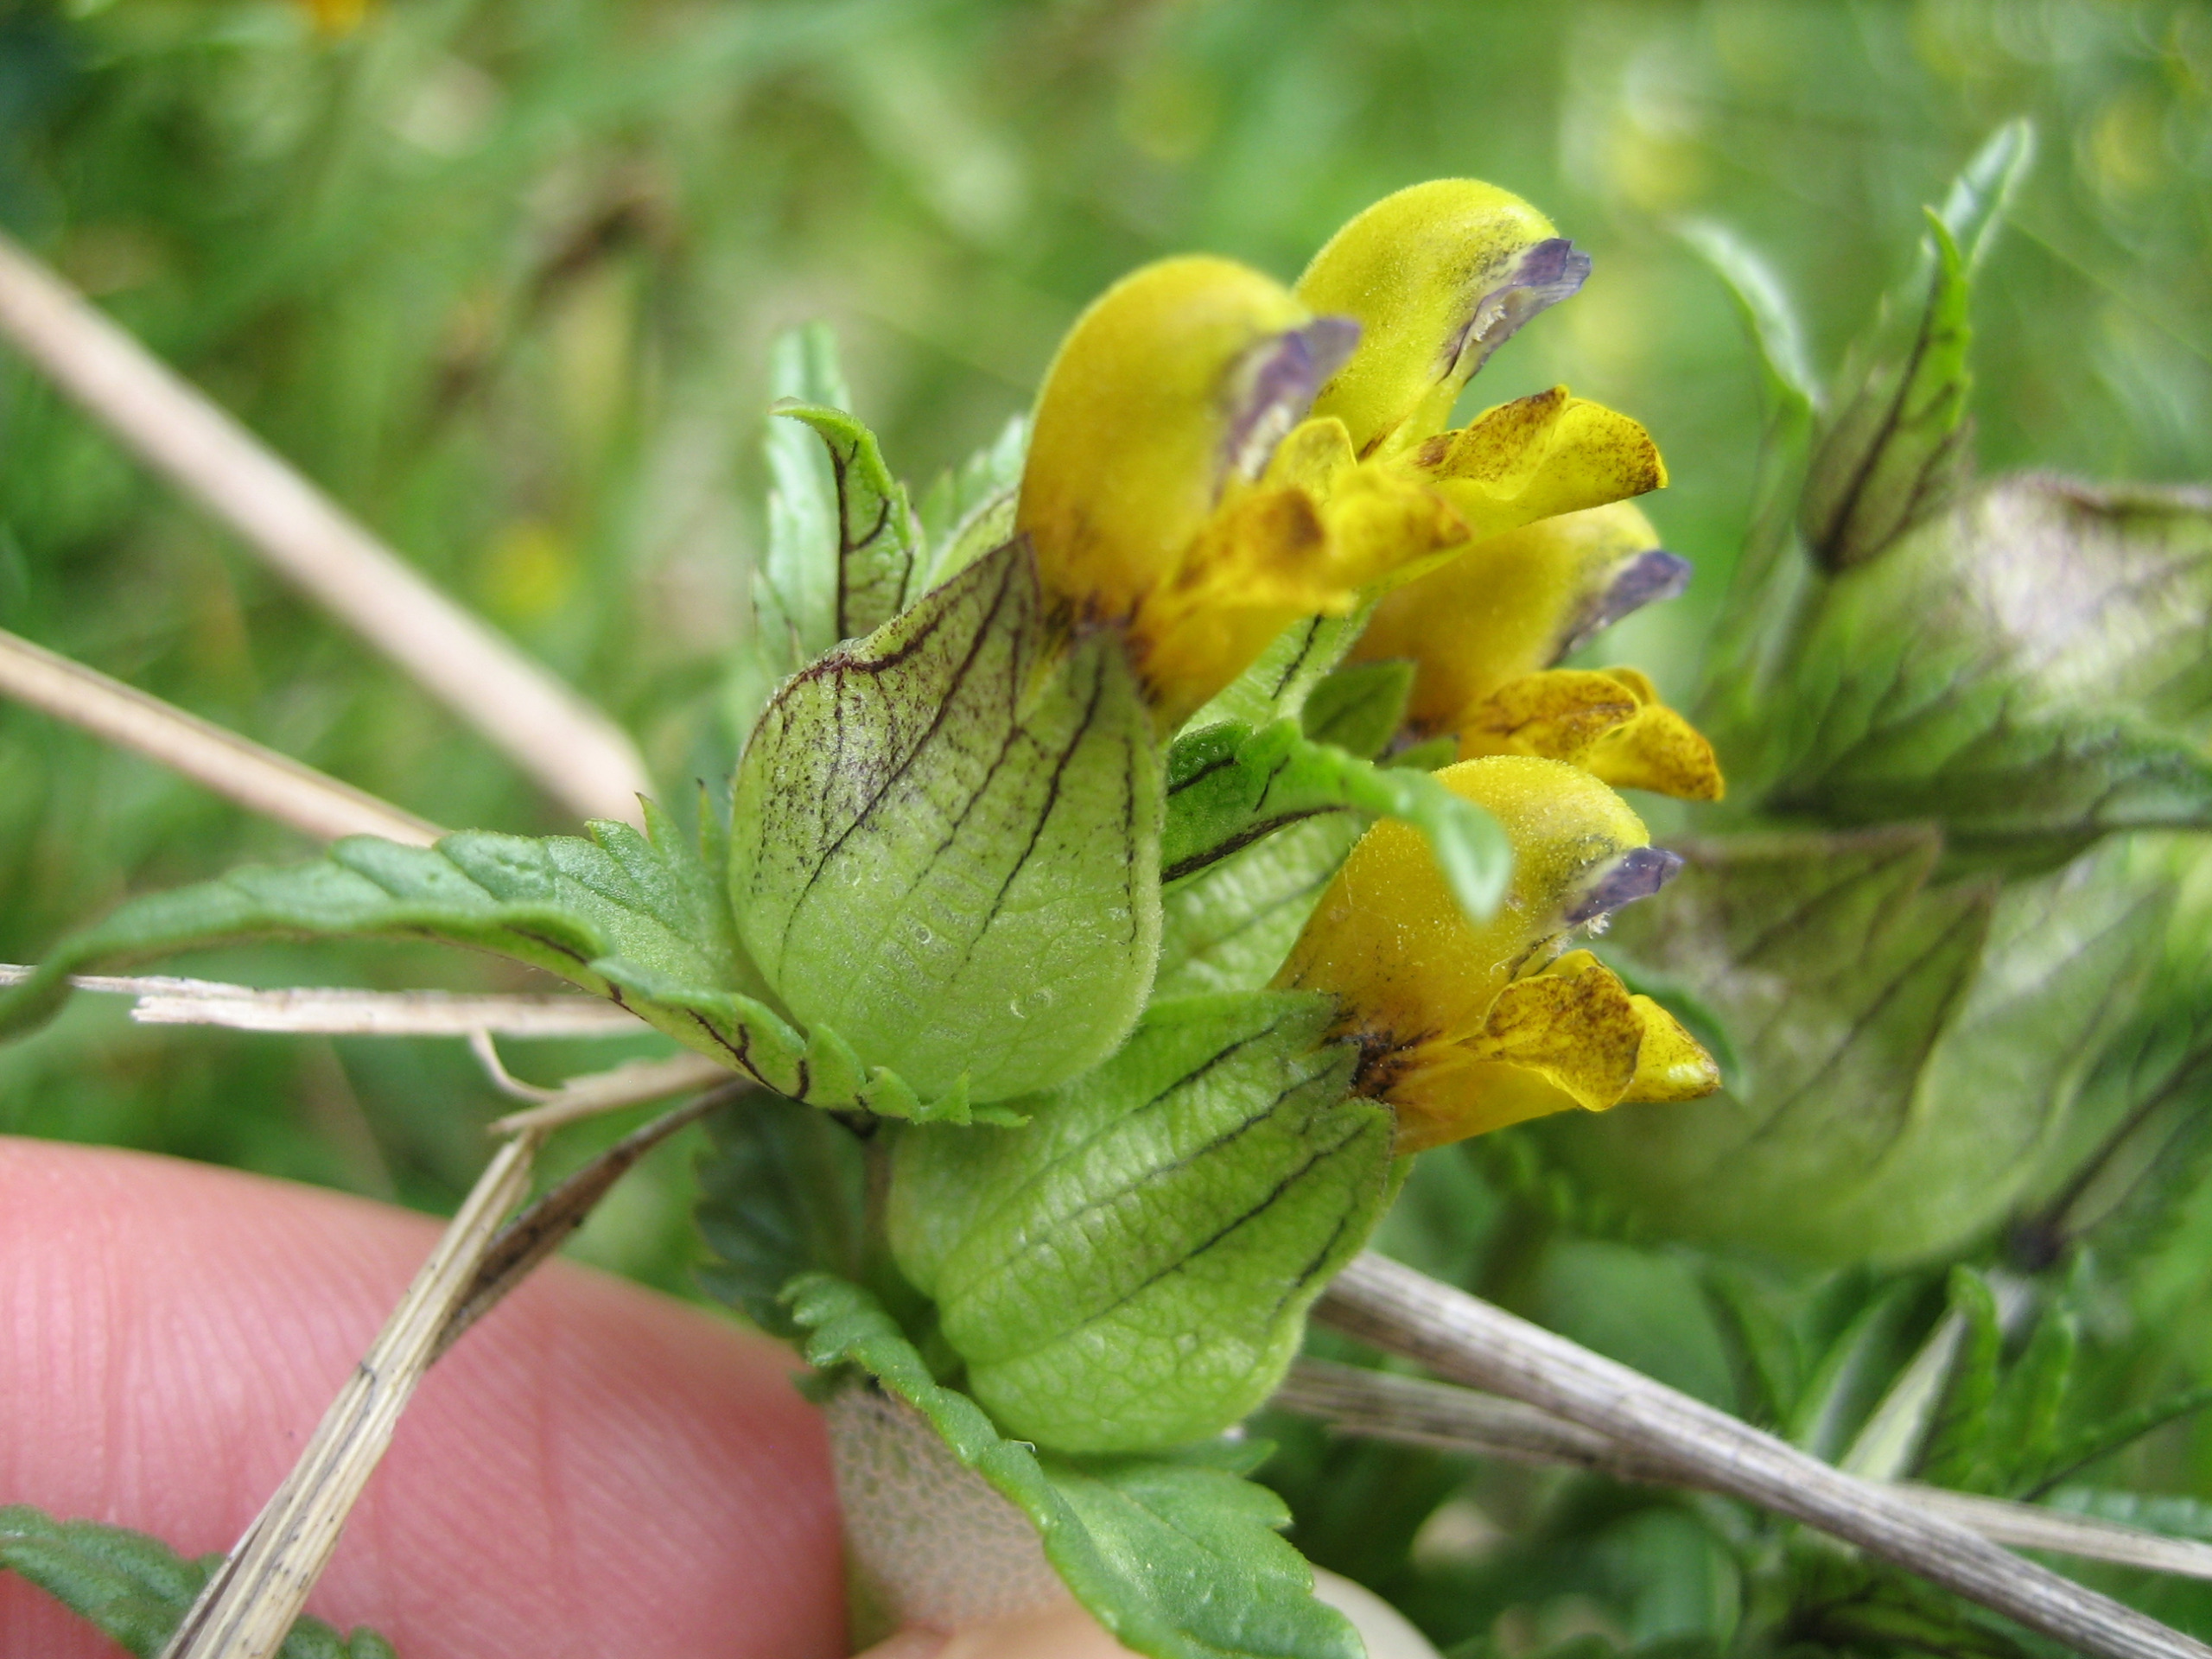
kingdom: Plantae
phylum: Tracheophyta
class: Magnoliopsida
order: Lamiales
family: Orobanchaceae
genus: Rhinanthus
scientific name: Rhinanthus minor
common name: Liden skjaller
